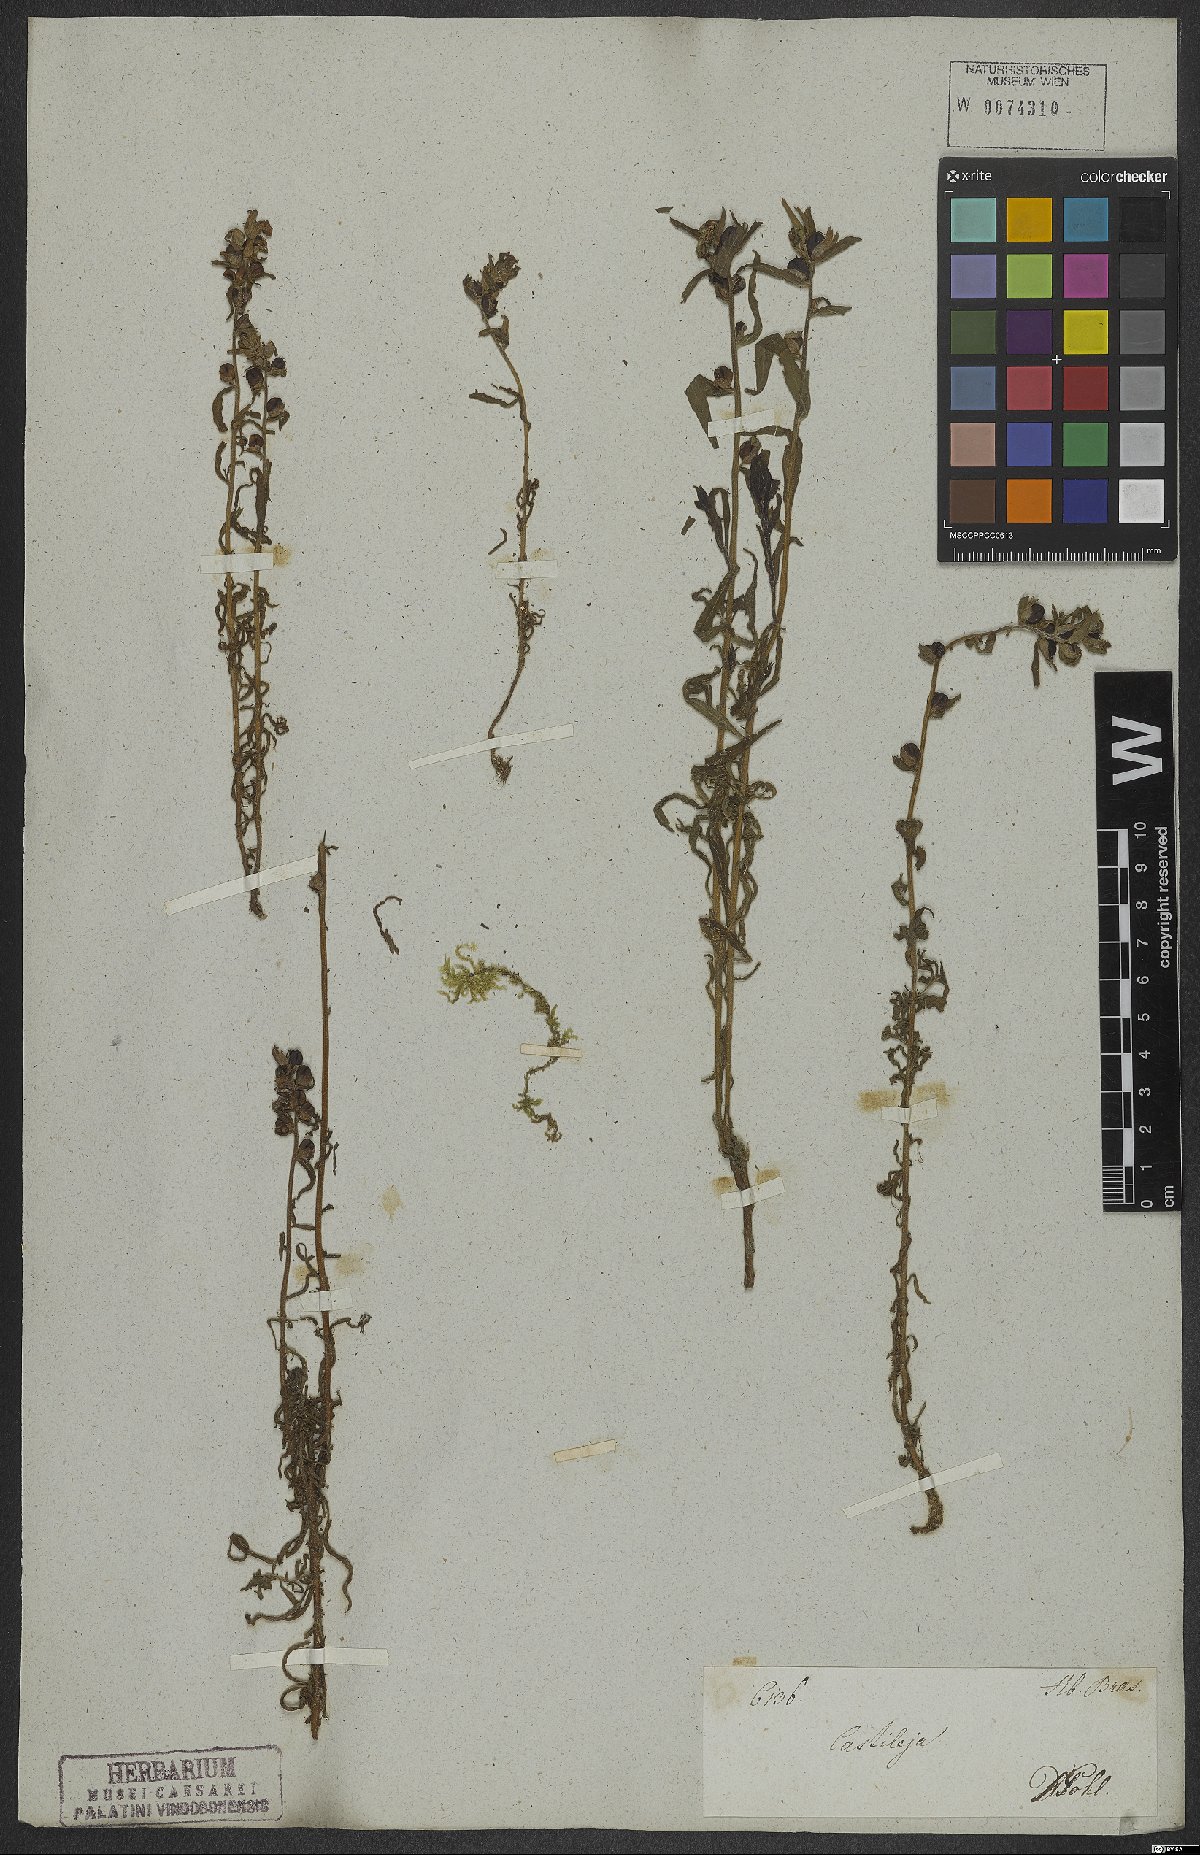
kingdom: Plantae
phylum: Tracheophyta
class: Magnoliopsida
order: Lamiales
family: Orobanchaceae
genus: Castilleja
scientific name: Castilleja arvensis
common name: Indian paintbrush
